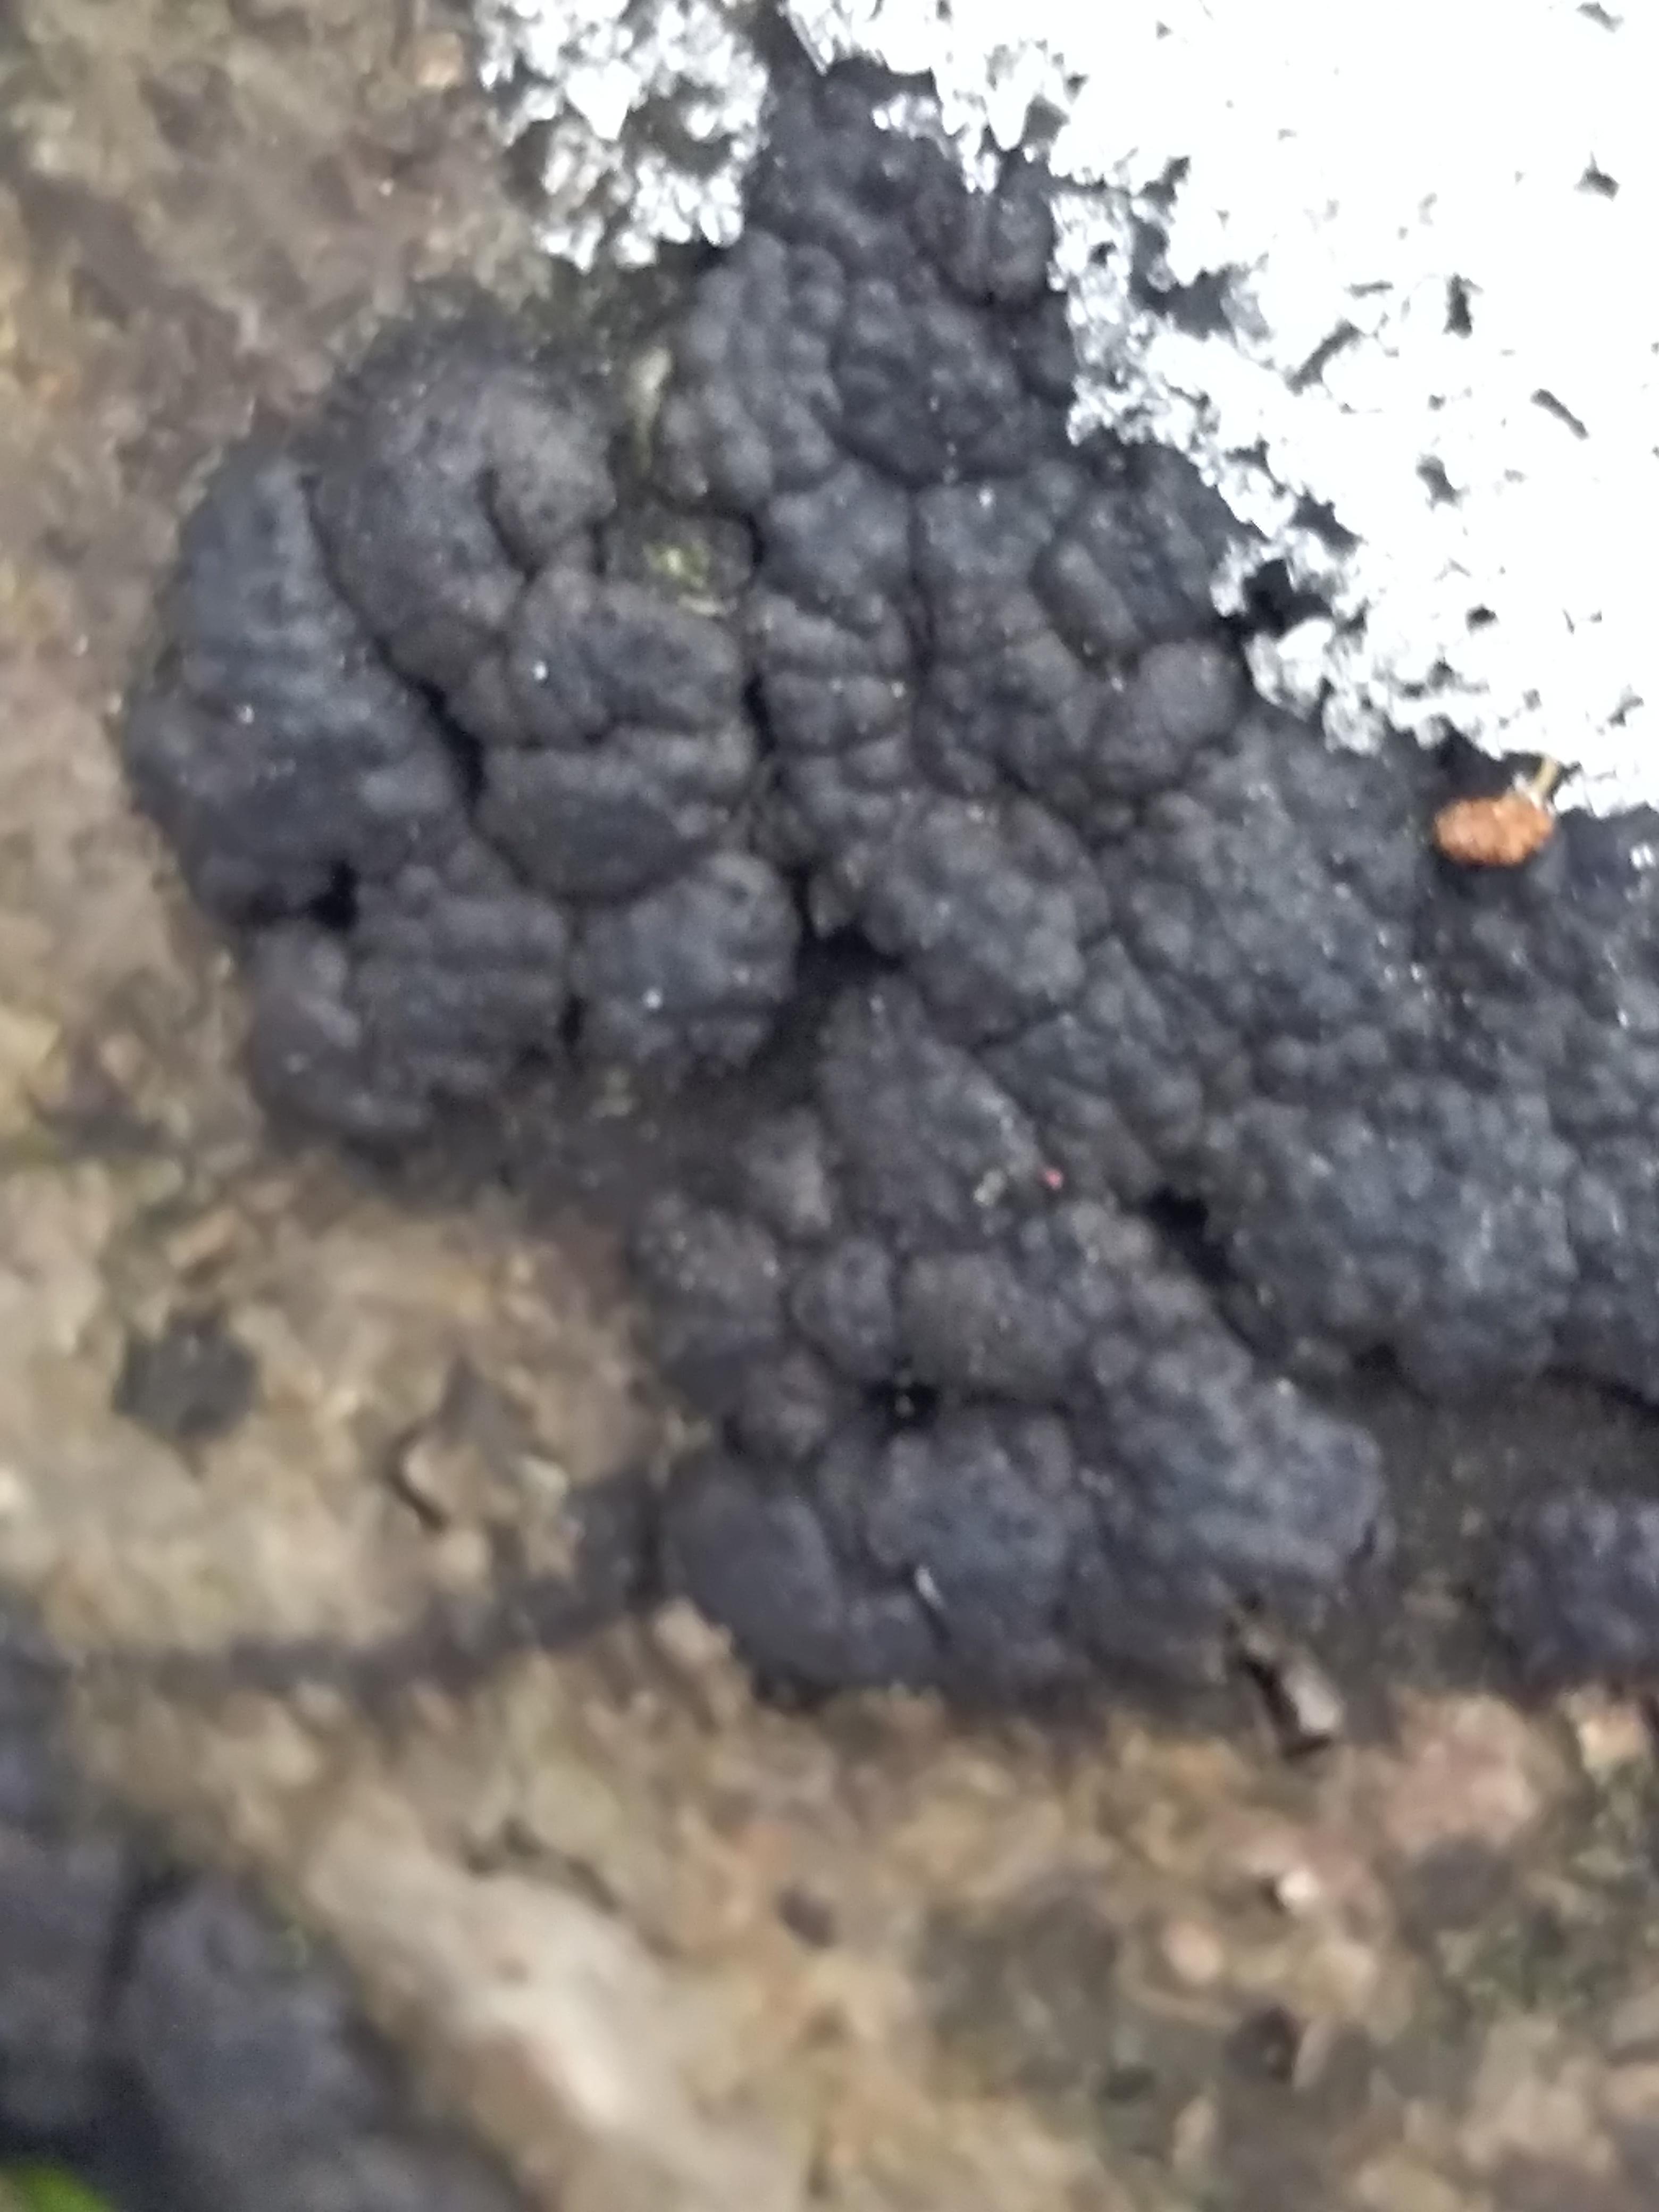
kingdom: Fungi
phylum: Ascomycota
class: Sordariomycetes
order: Xylariales
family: Hypoxylaceae
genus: Jackrogersella
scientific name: Jackrogersella multiformis
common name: foranderlig kulbær
